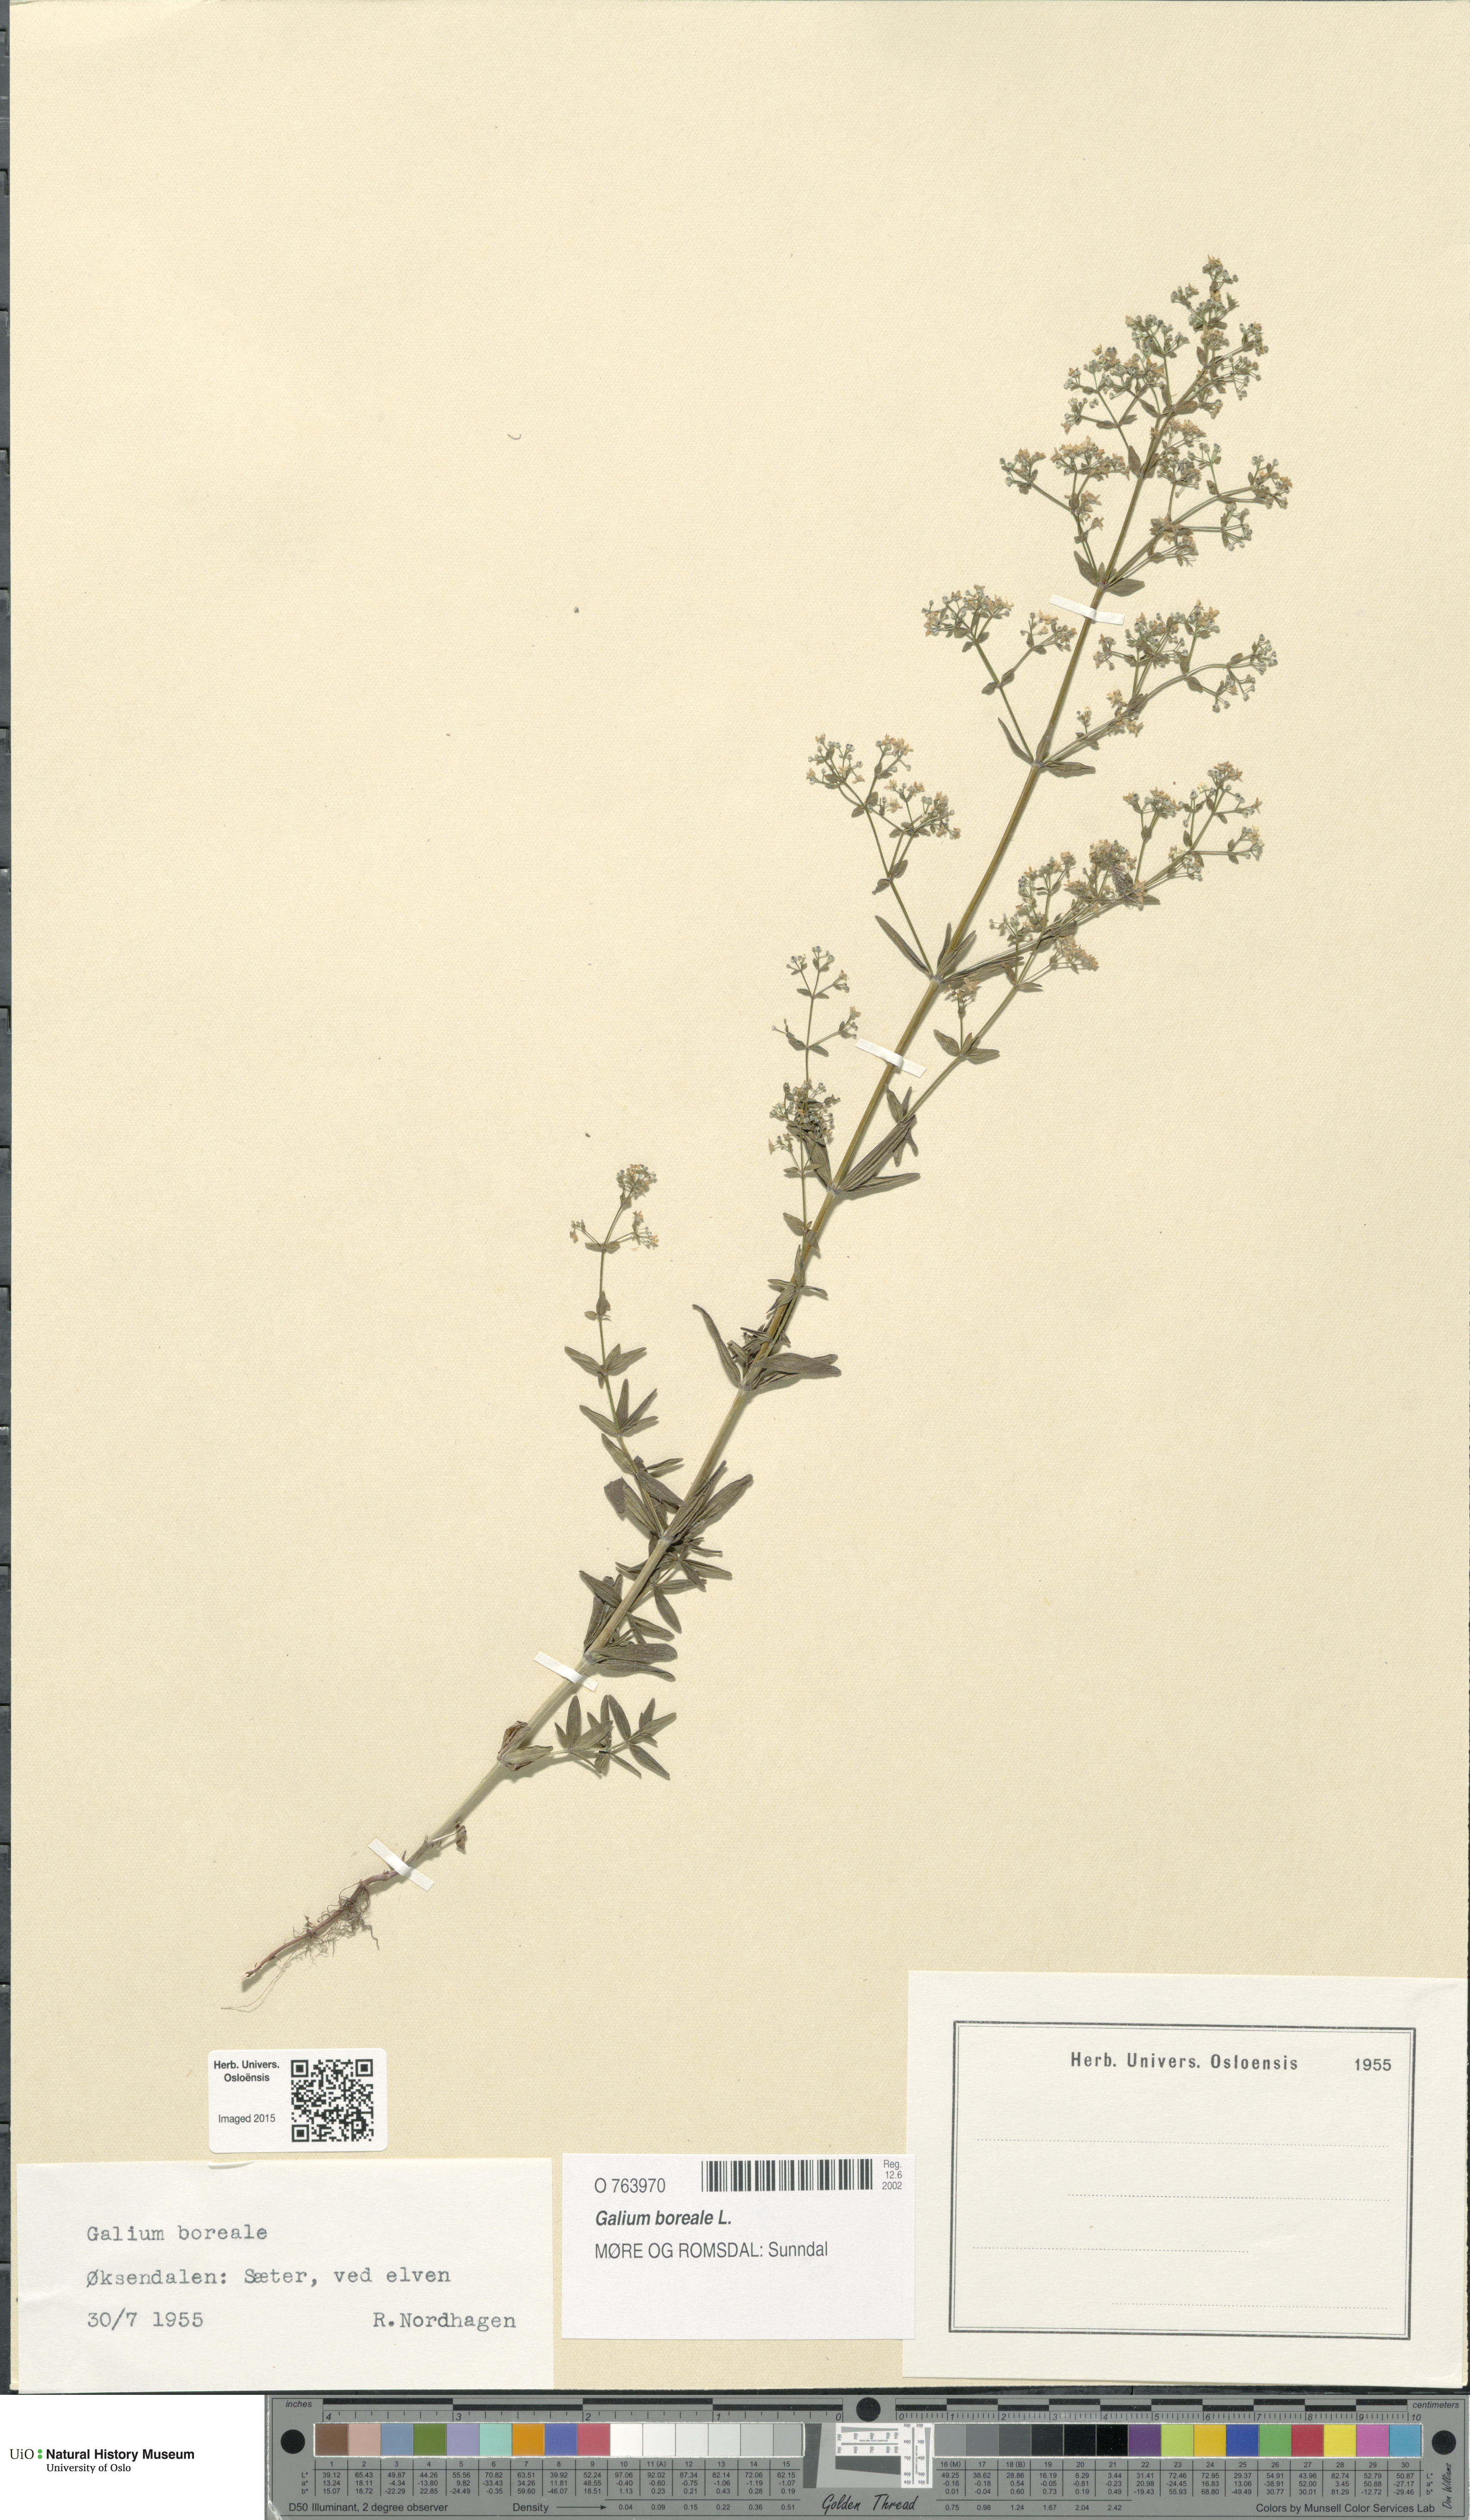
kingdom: Plantae
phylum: Tracheophyta
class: Magnoliopsida
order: Gentianales
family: Rubiaceae
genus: Galium
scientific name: Galium boreale
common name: Northern bedstraw
